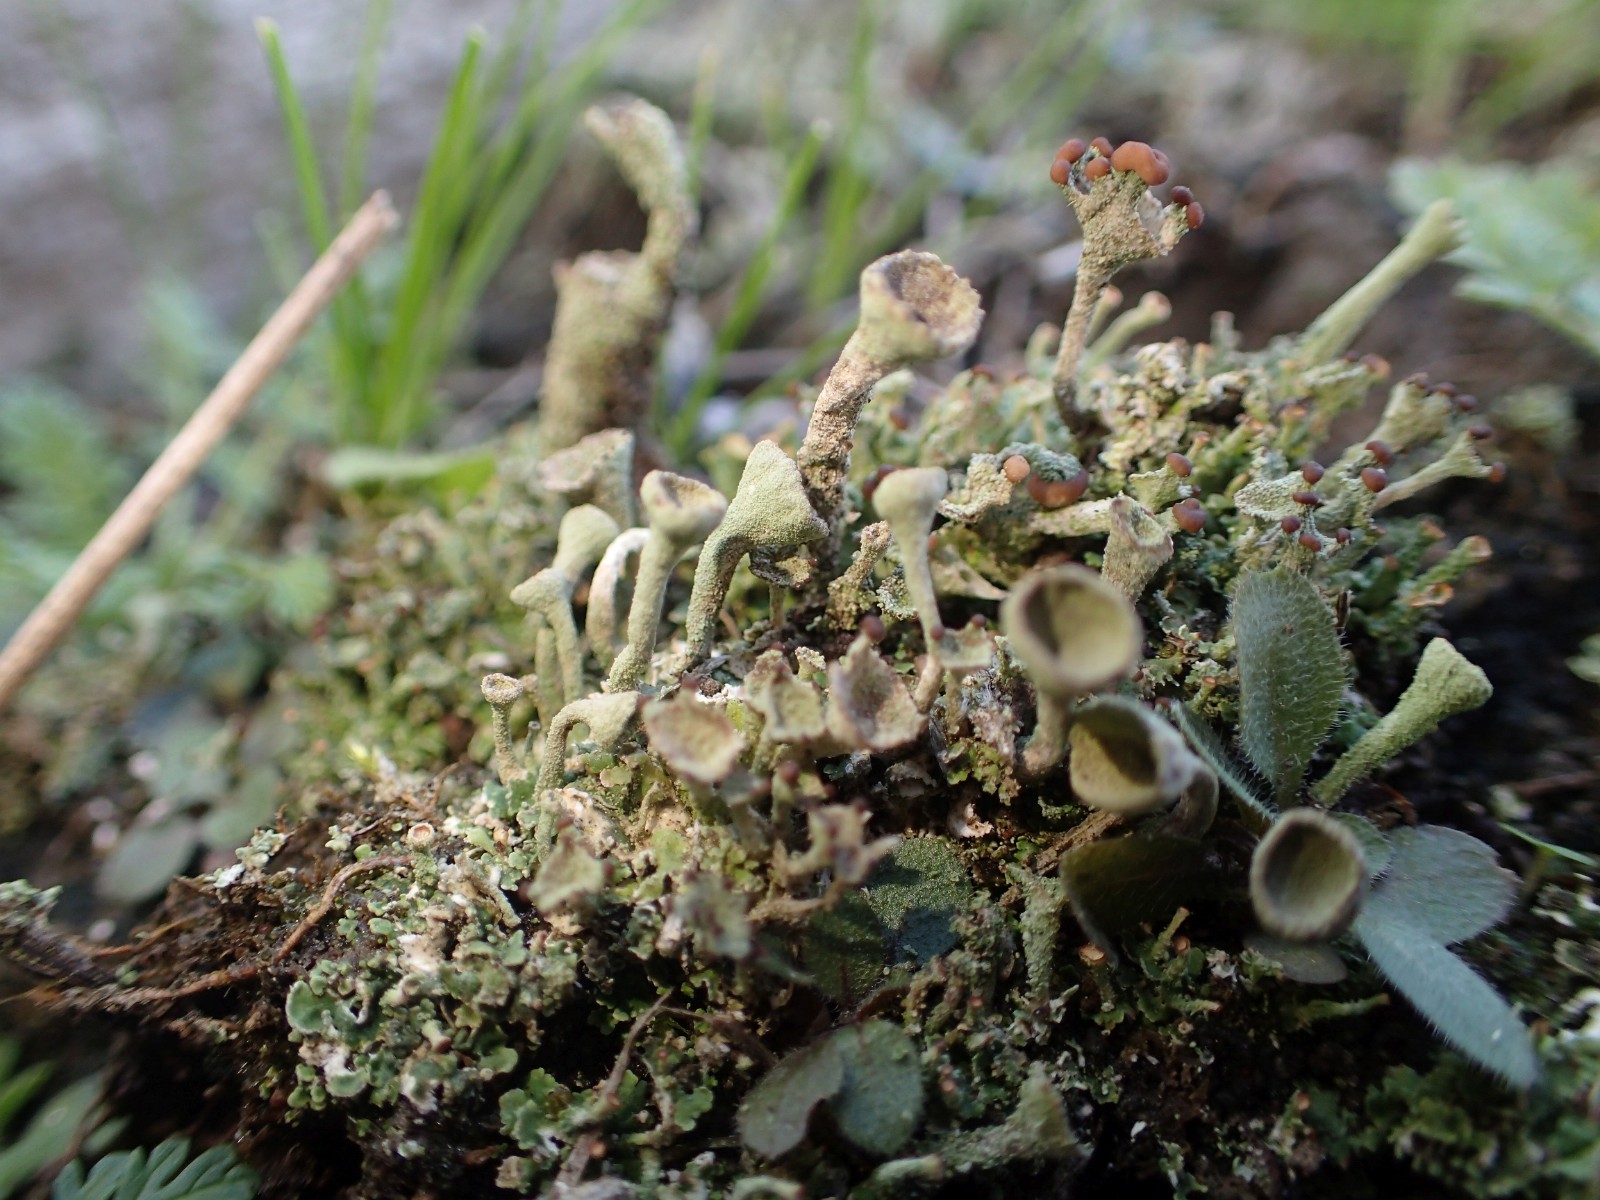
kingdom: Fungi
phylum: Ascomycota
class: Lecanoromycetes
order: Lecanorales
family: Cladoniaceae
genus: Cladonia
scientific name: Cladonia
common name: brungrøn bægerlav
